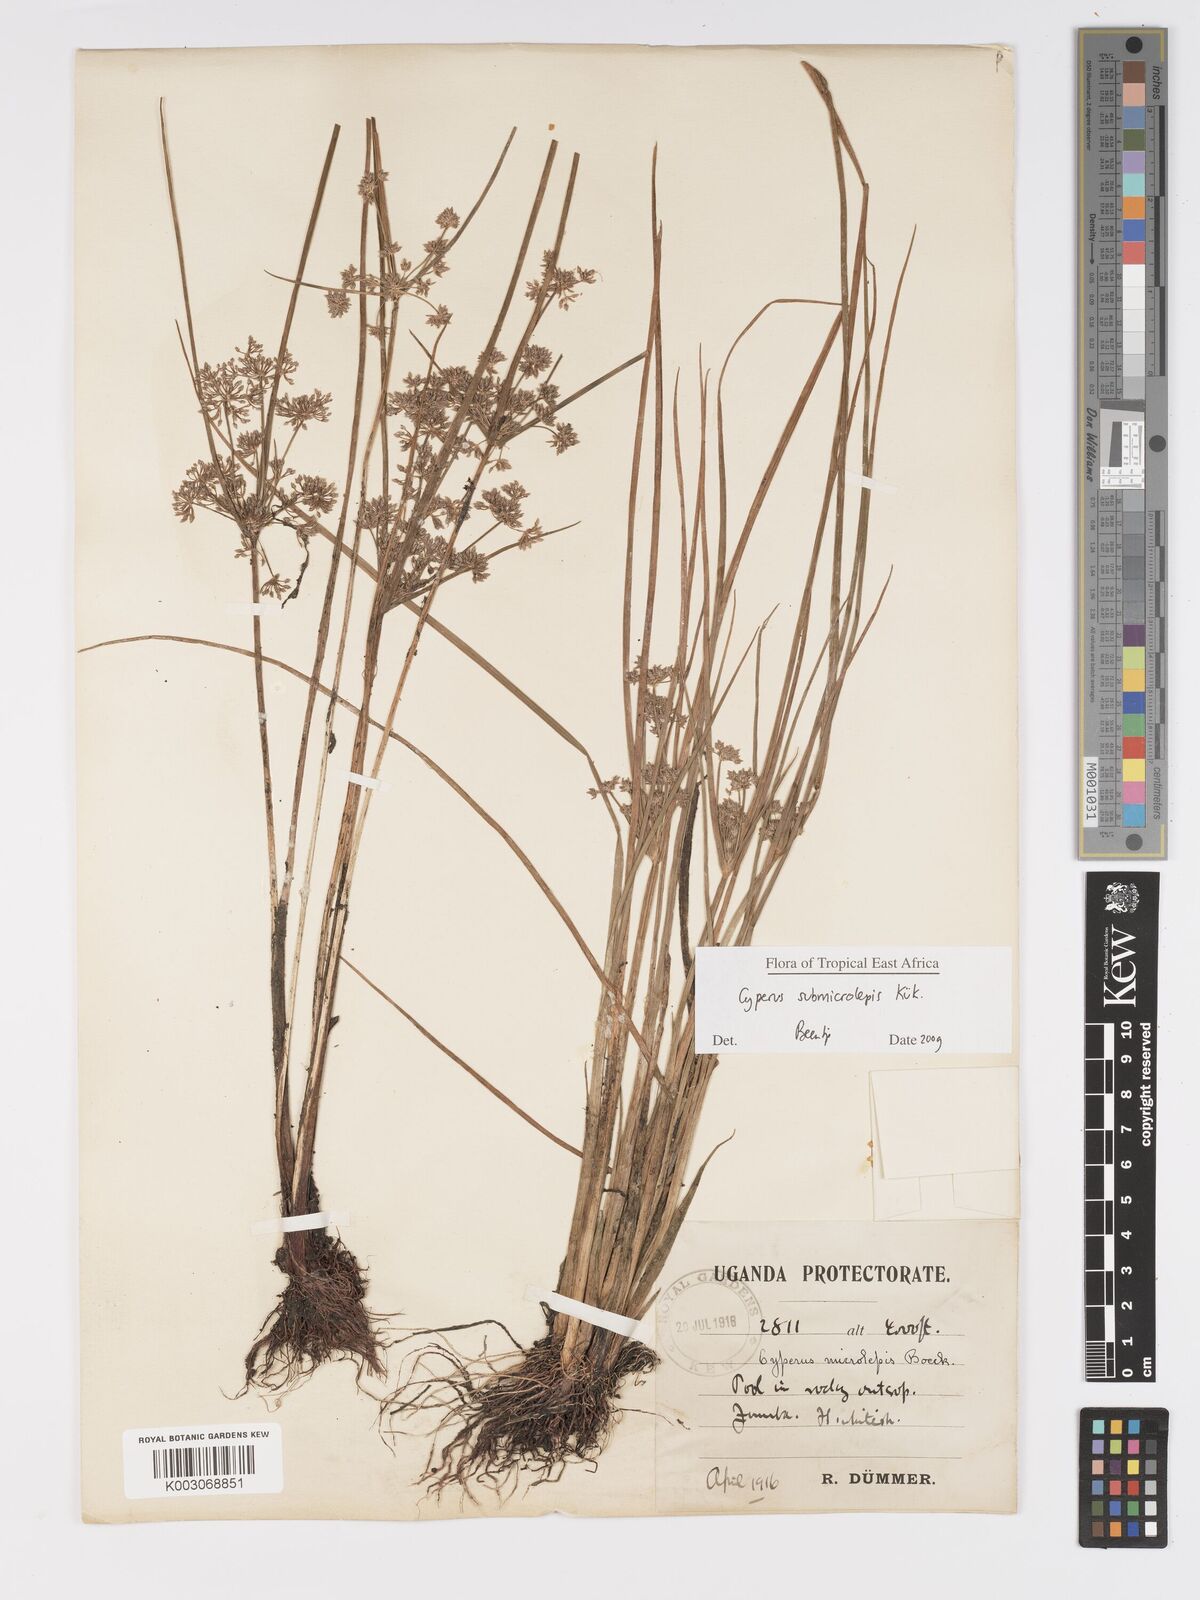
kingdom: Plantae
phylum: Tracheophyta
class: Liliopsida
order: Poales
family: Cyperaceae
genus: Cyperus
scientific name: Cyperus neoguinensis
